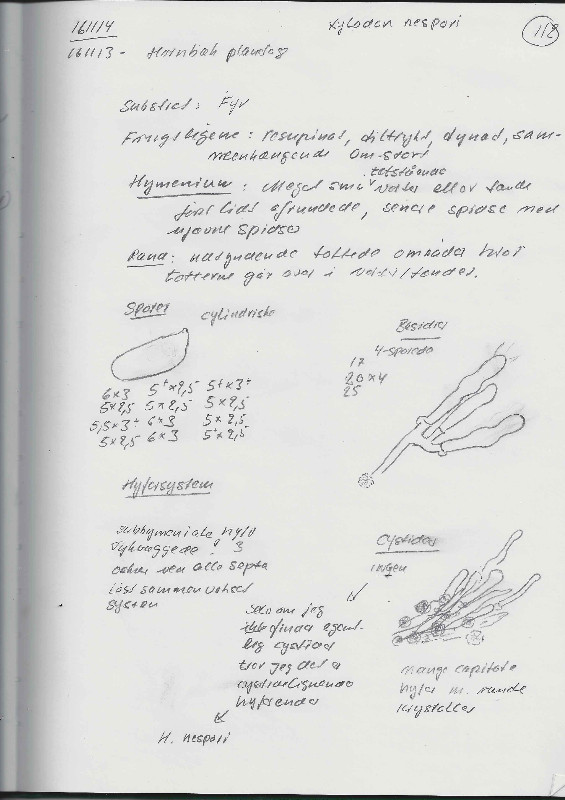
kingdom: Fungi
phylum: Basidiomycota
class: Agaricomycetes
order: Hymenochaetales
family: Schizoporaceae
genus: Xylodon
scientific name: Xylodon nesporii
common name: fintandet tandsvamp
